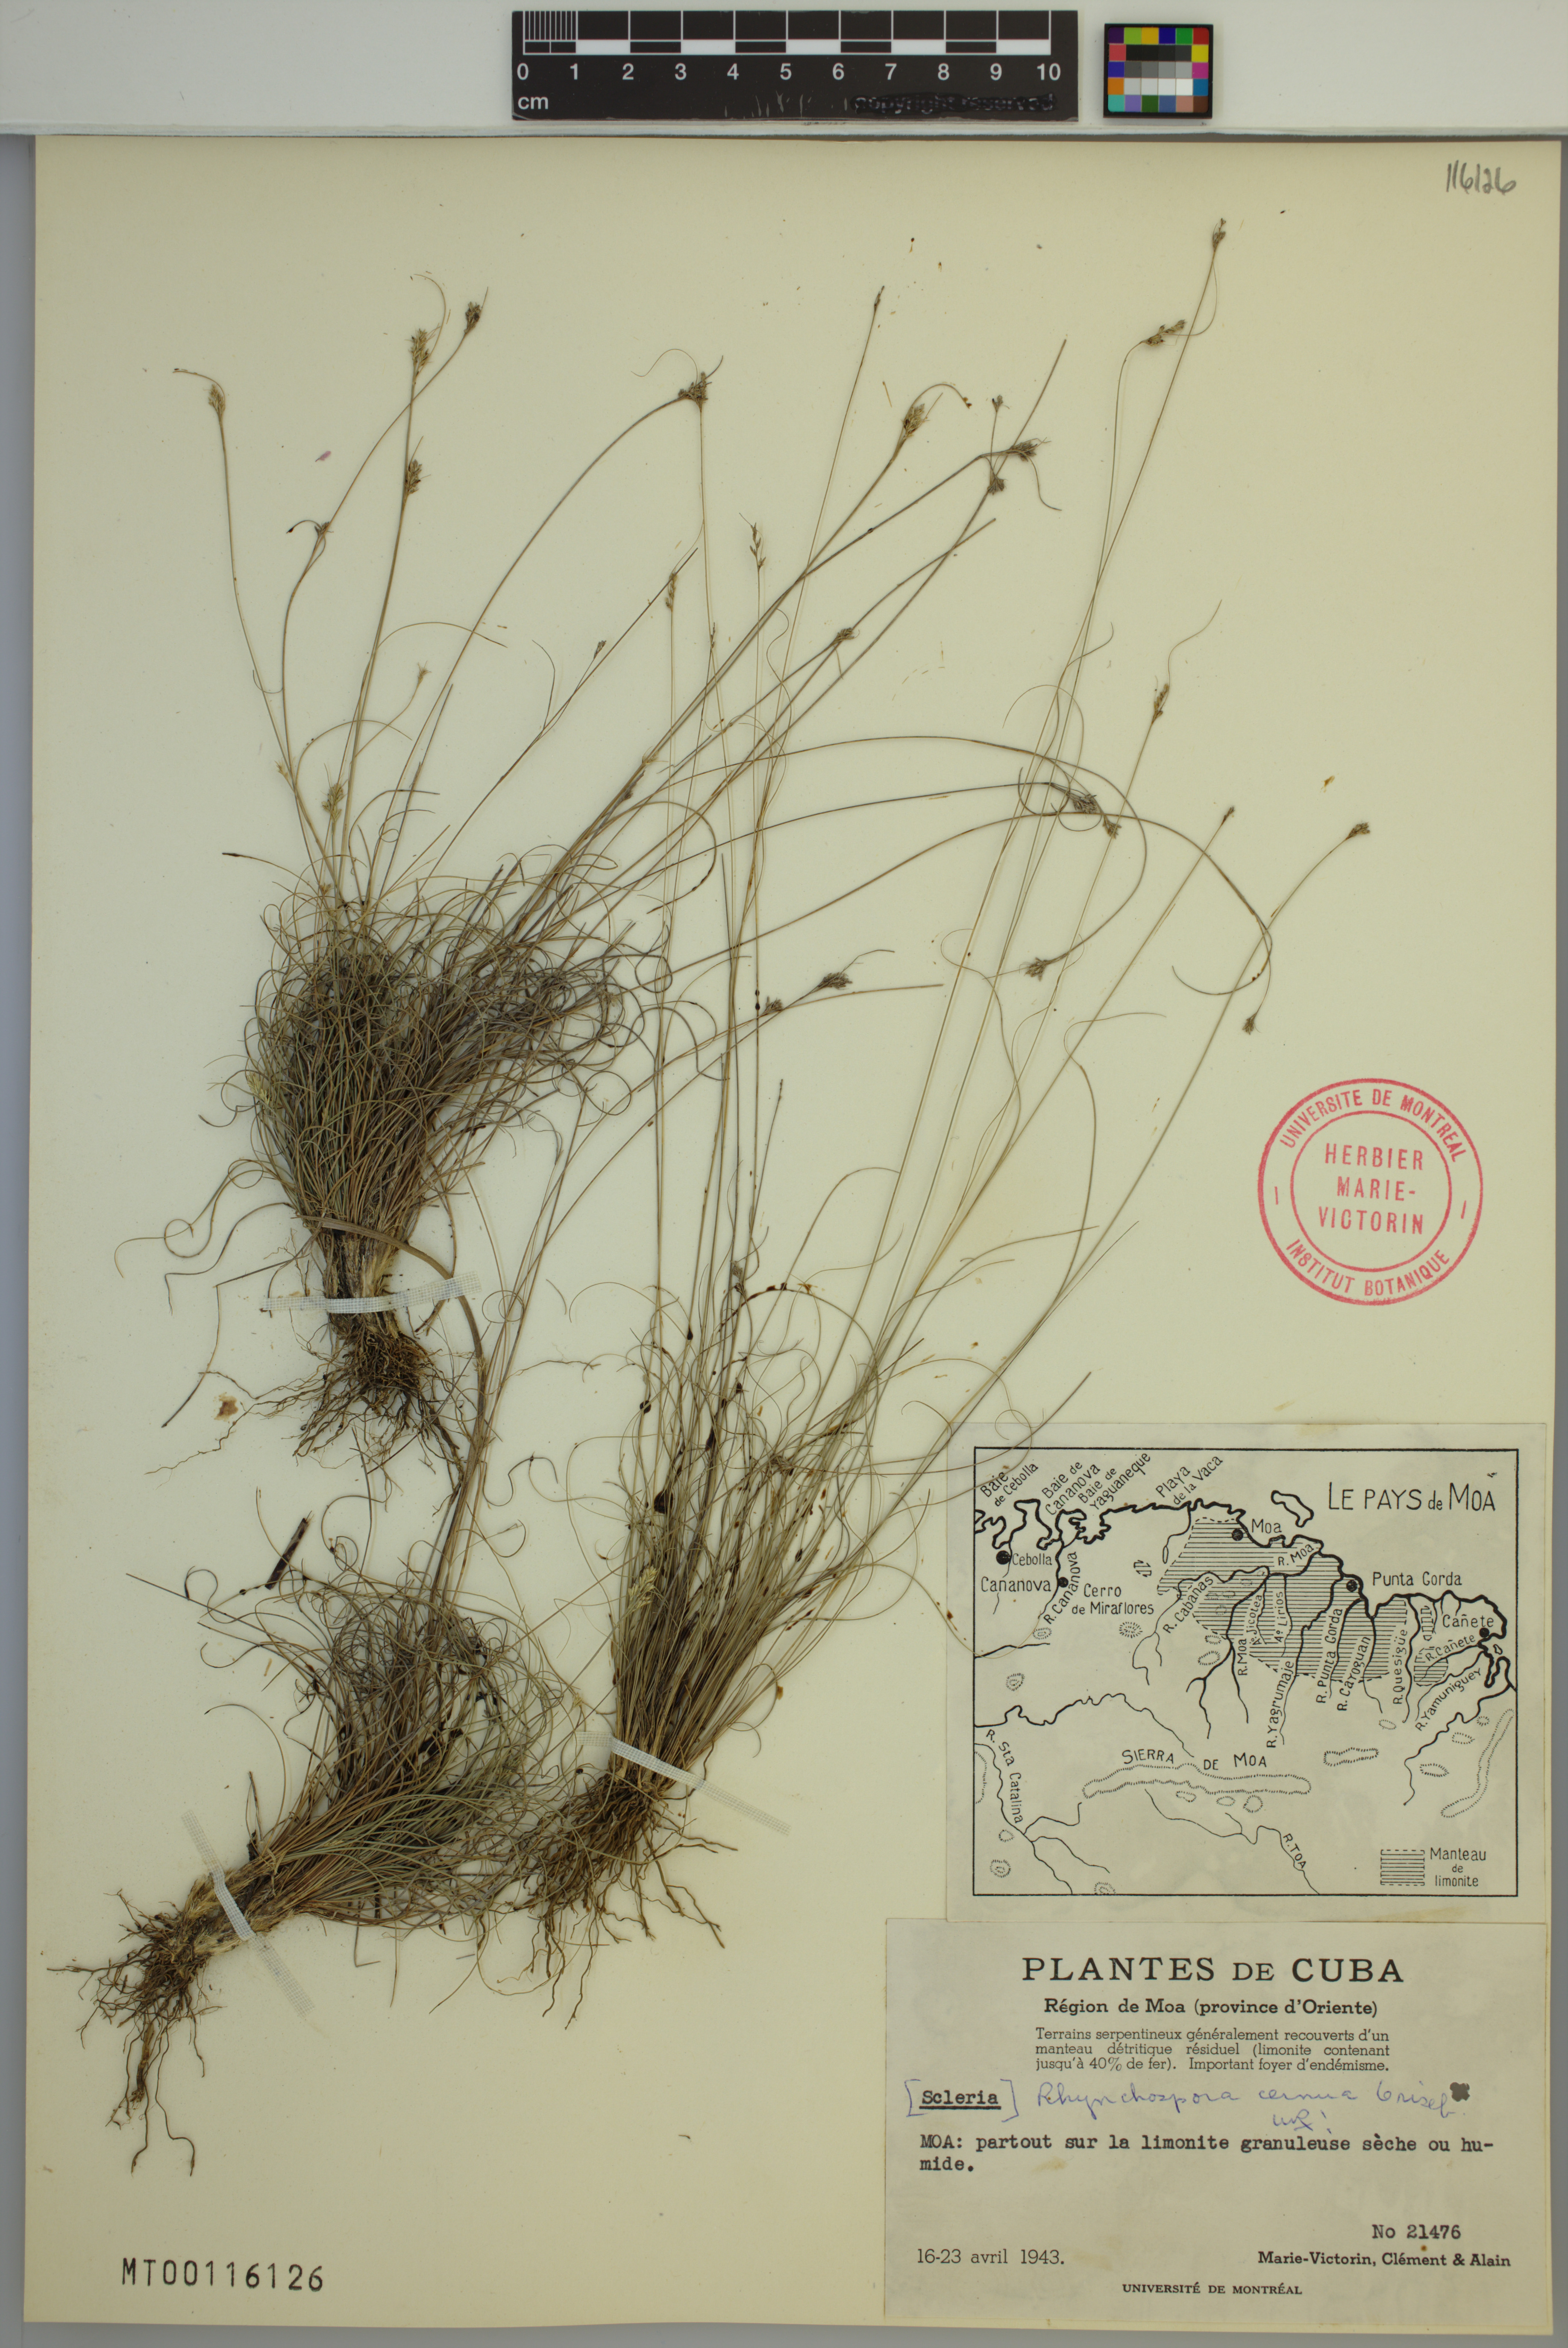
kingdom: Plantae
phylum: Tracheophyta
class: Liliopsida
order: Poales
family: Cyperaceae
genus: Rhynchospora
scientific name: Rhynchospora cernua
